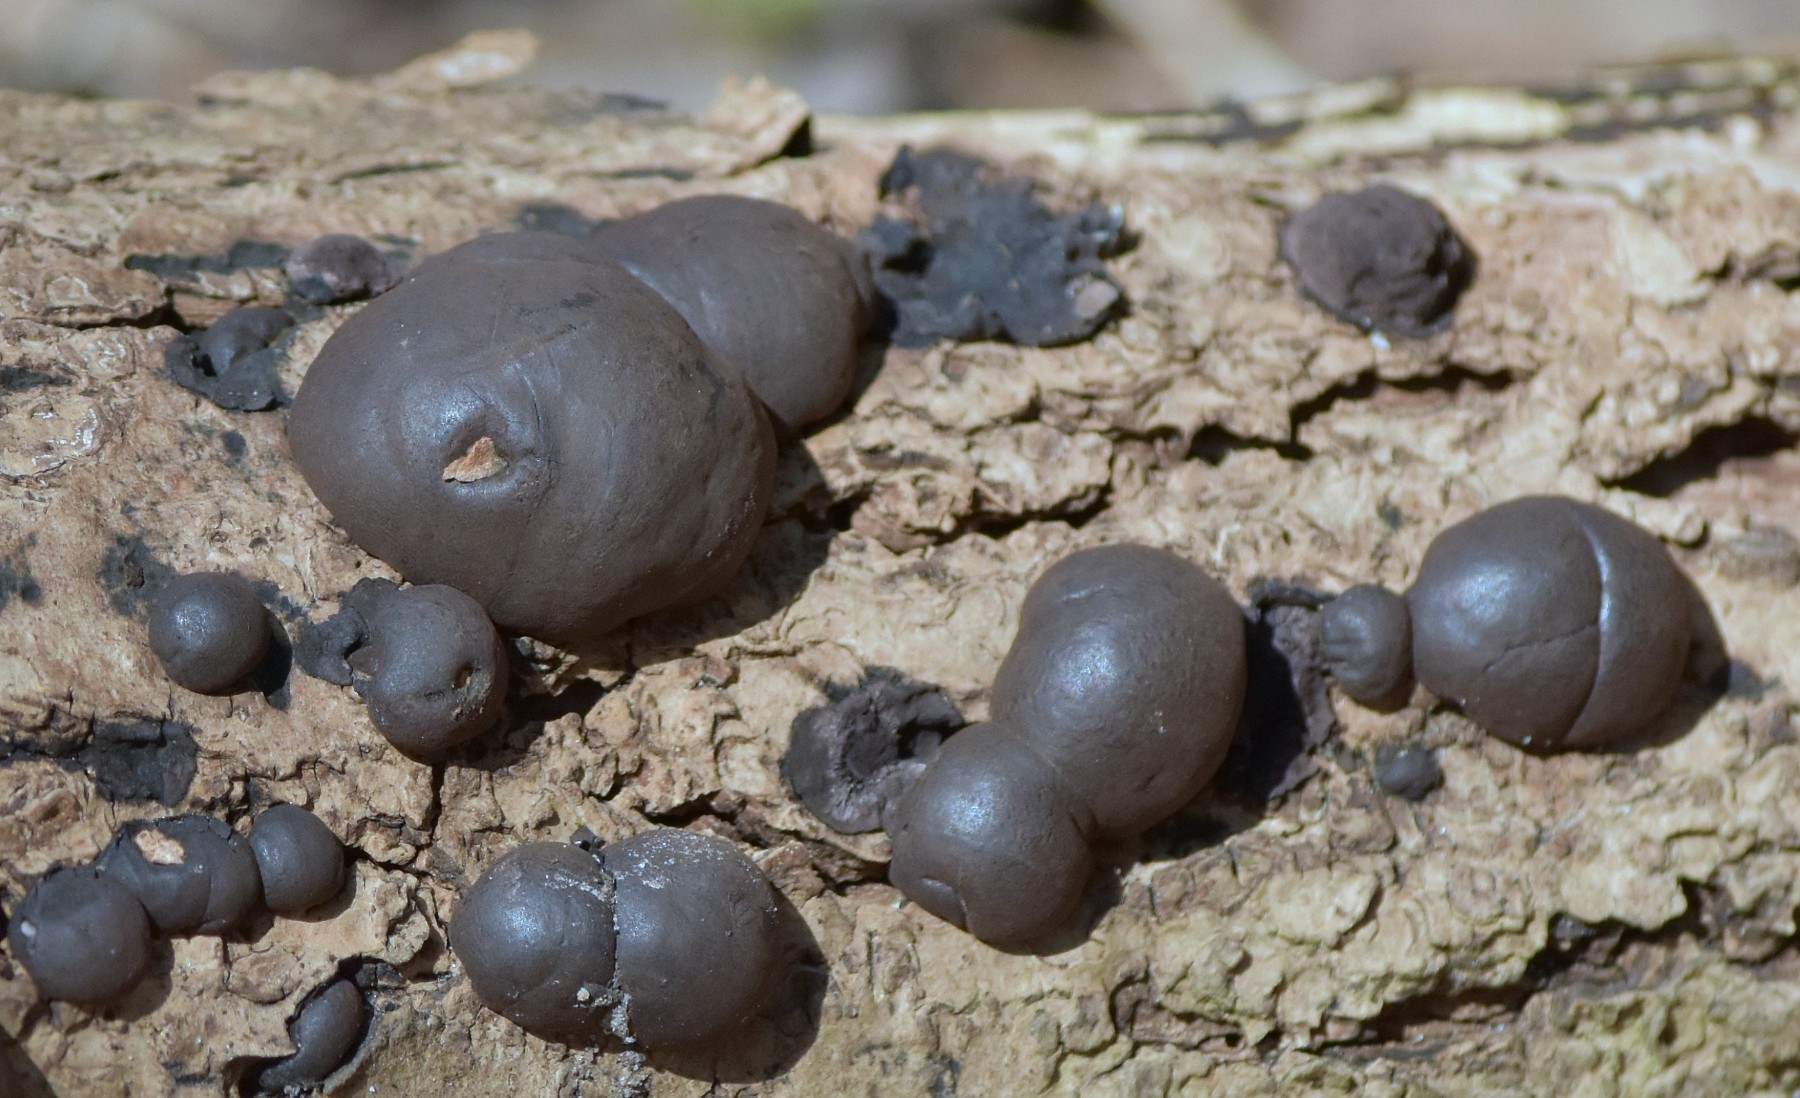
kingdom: Fungi
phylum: Ascomycota
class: Sordariomycetes
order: Xylariales
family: Hypoxylaceae
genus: Daldinia
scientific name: Daldinia concentrica
